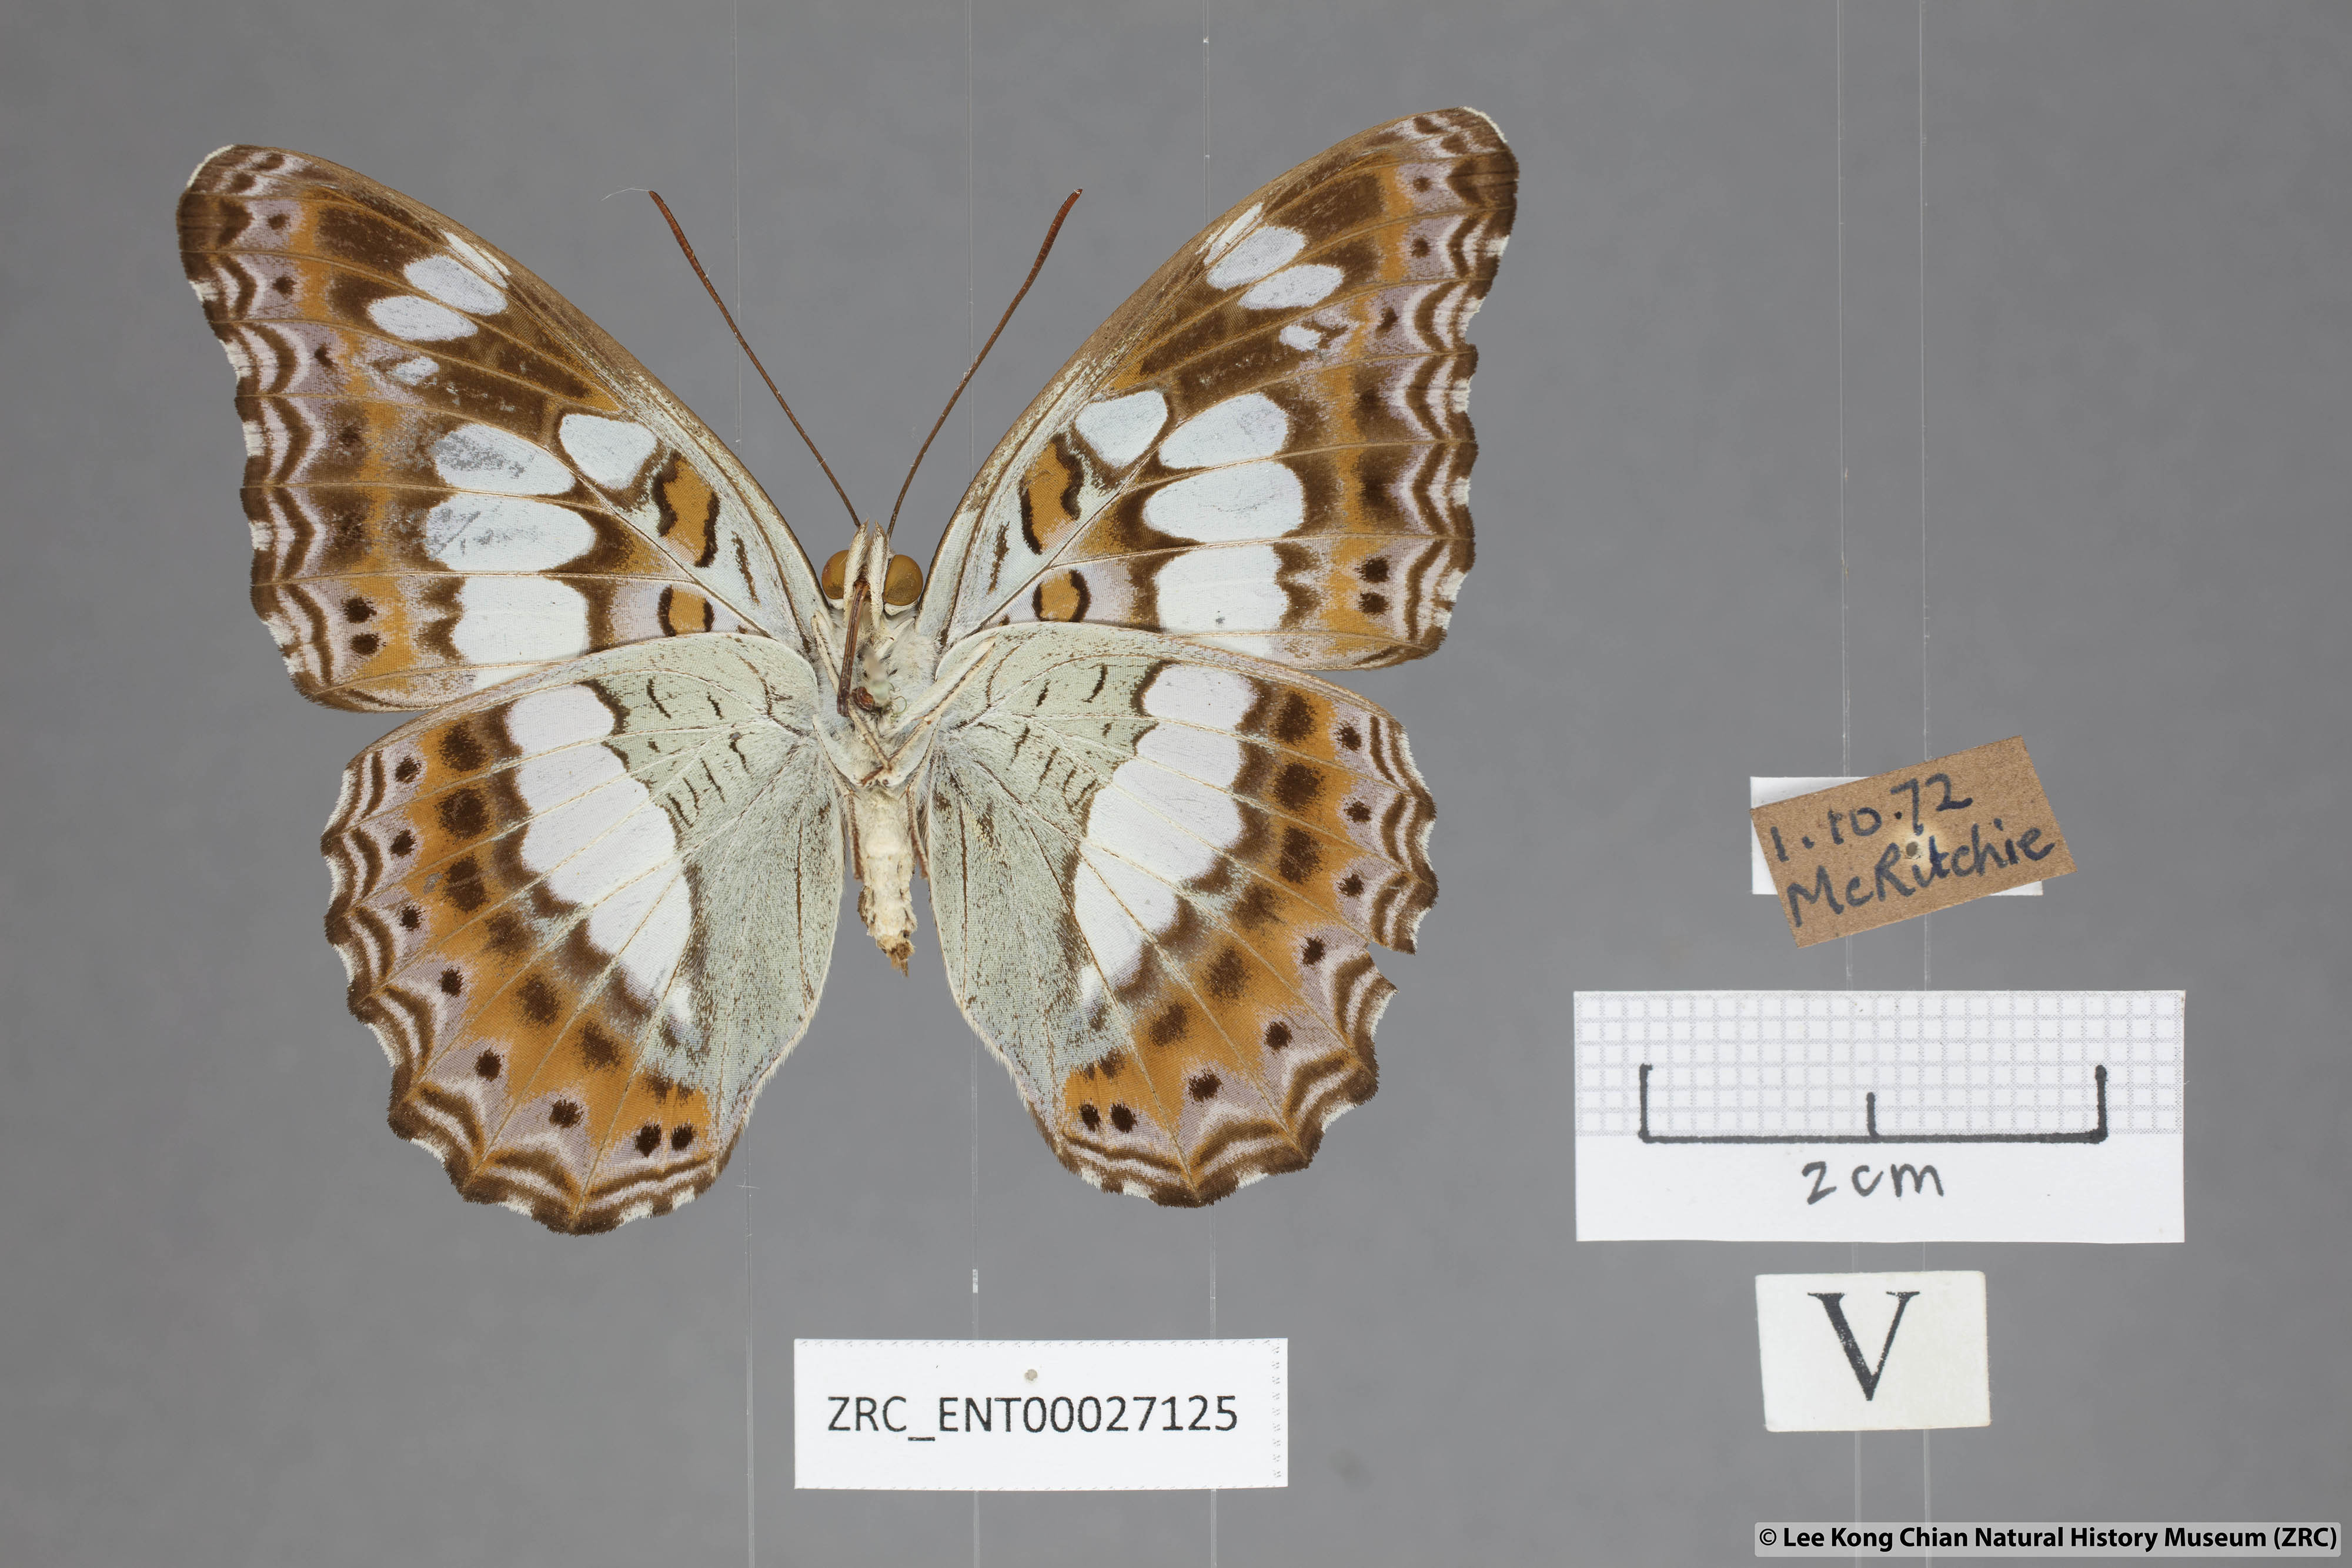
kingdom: Animalia
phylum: Arthropoda
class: Insecta
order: Lepidoptera
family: Nymphalidae
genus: Limenitis
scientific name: Limenitis Moduza procris
